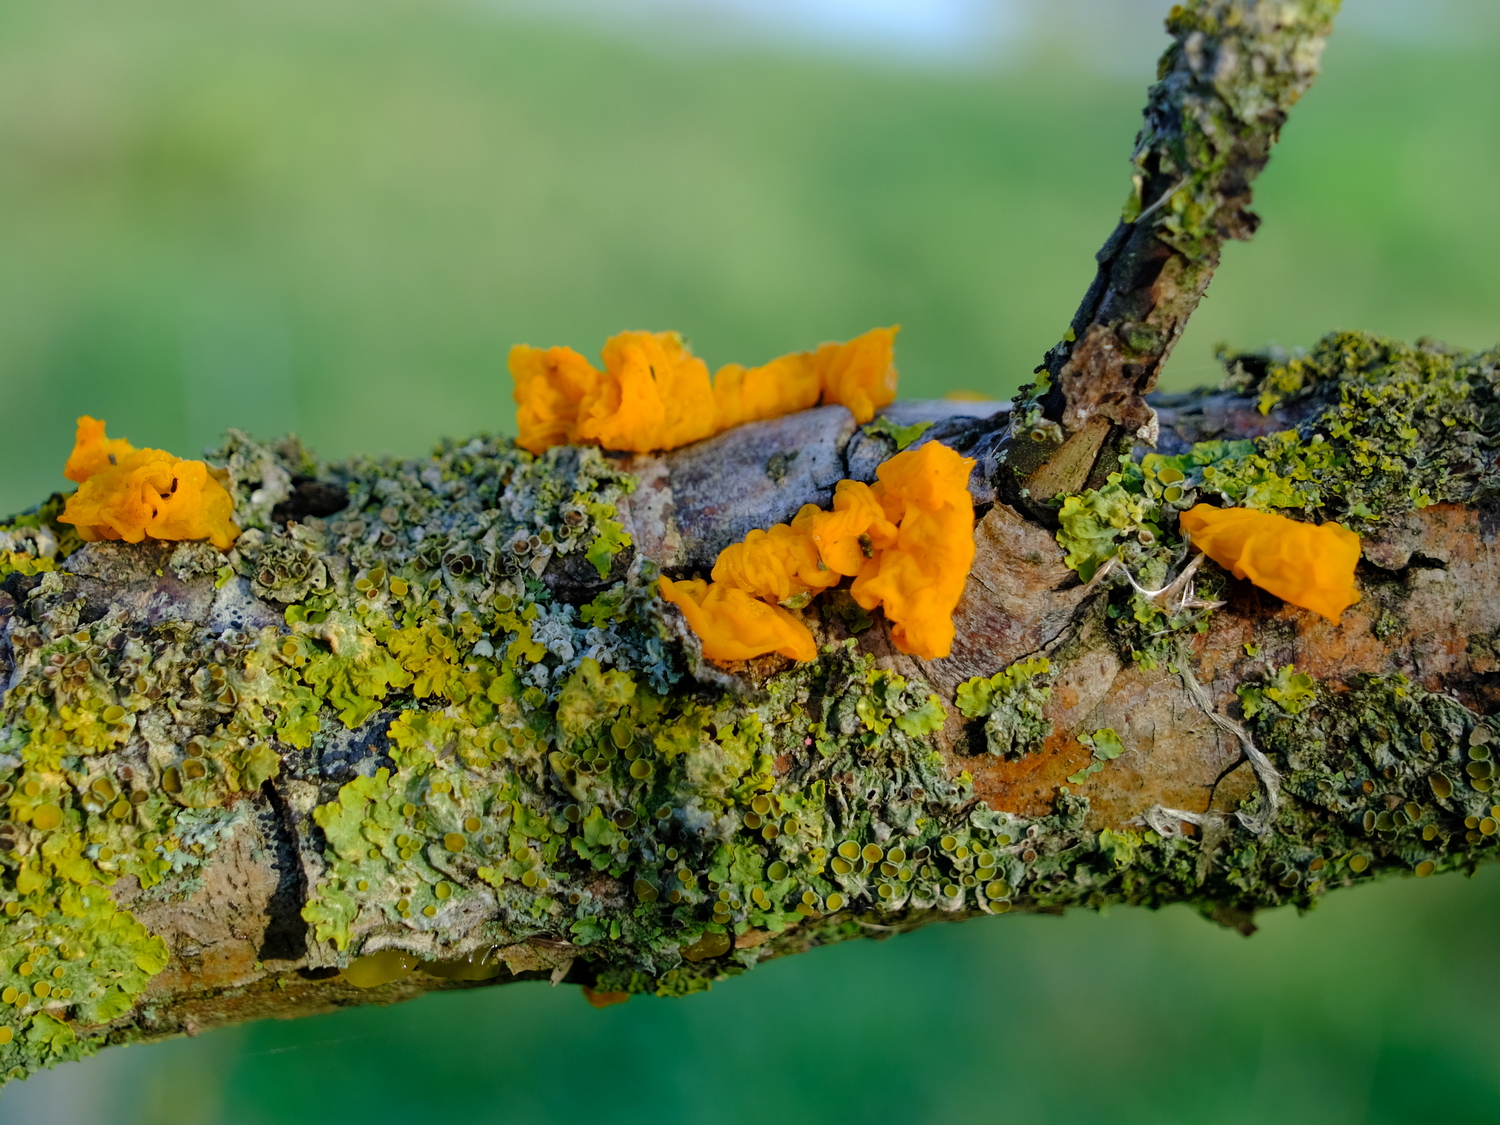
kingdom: Fungi
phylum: Basidiomycota
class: Tremellomycetes
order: Tremellales
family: Tremellaceae
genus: Tremella
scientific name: Tremella mesenterica
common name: gul bævresvamp
